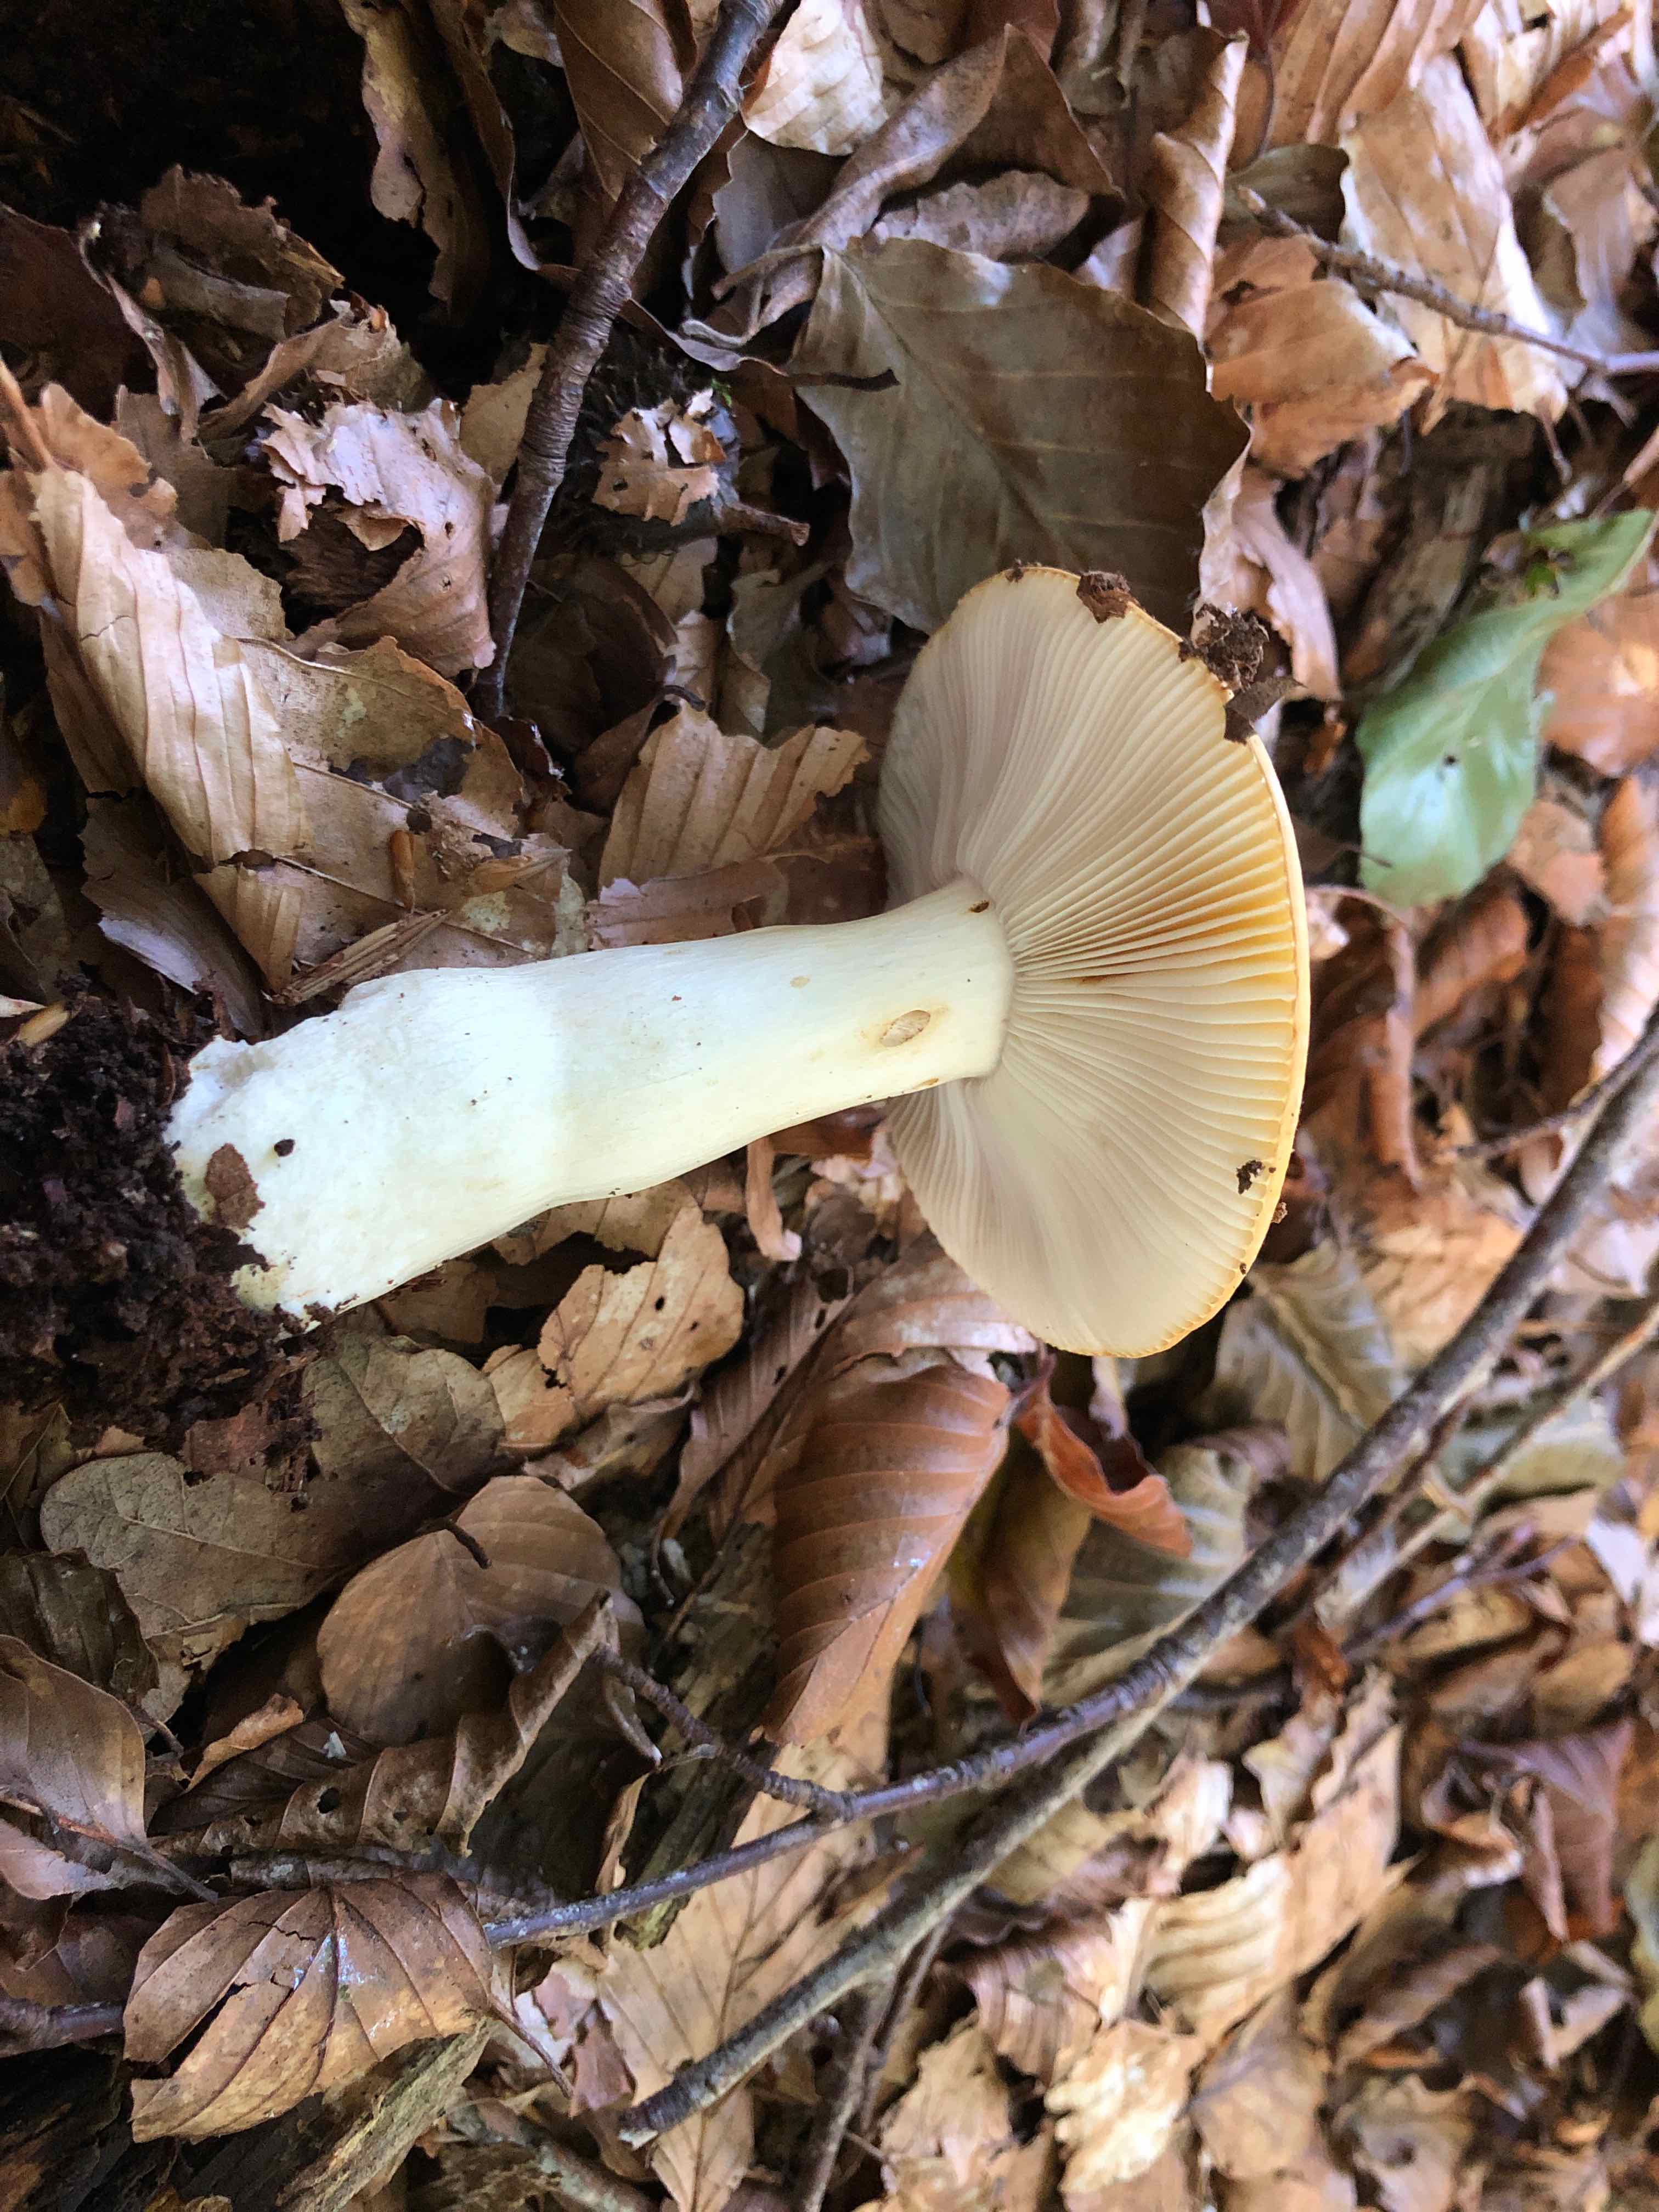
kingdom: Fungi
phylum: Basidiomycota
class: Agaricomycetes
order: Russulales
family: Russulaceae
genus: Russula
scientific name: Russula ochroleuca
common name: okkergul skørhat
